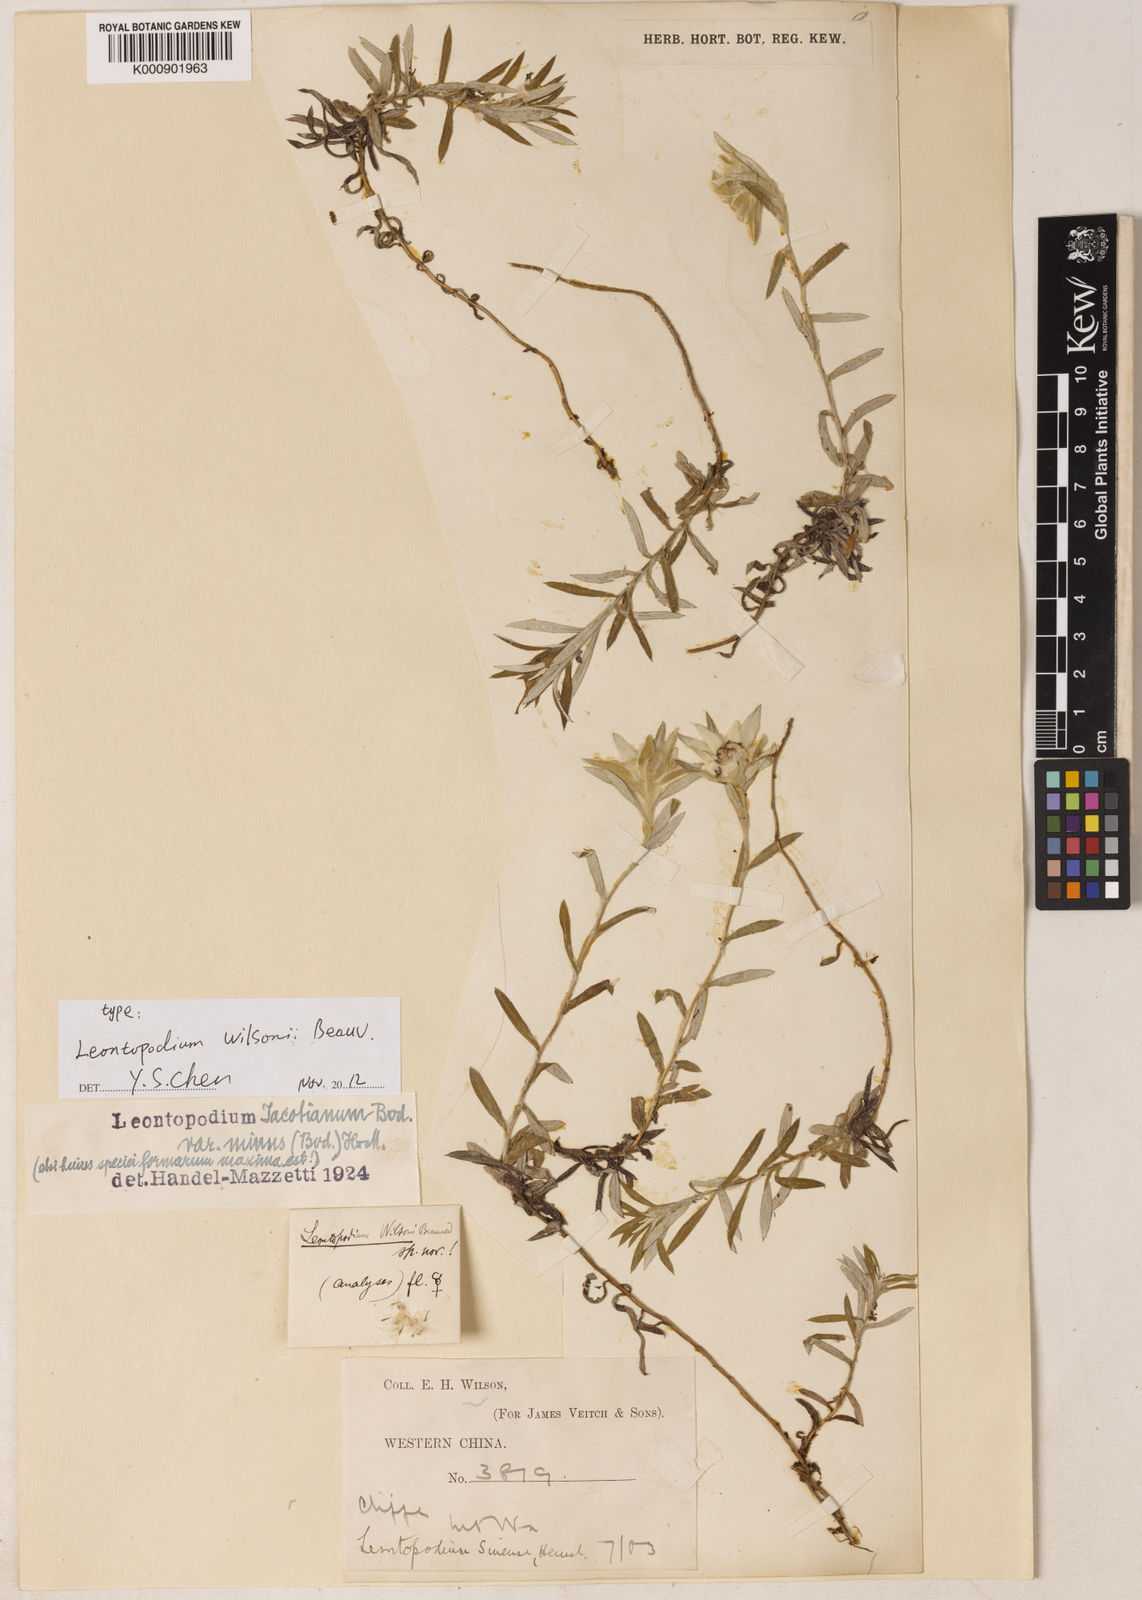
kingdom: Plantae
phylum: Tracheophyta
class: Magnoliopsida
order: Asterales
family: Asteraceae
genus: Leontopodium
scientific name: Leontopodium jacotianum
